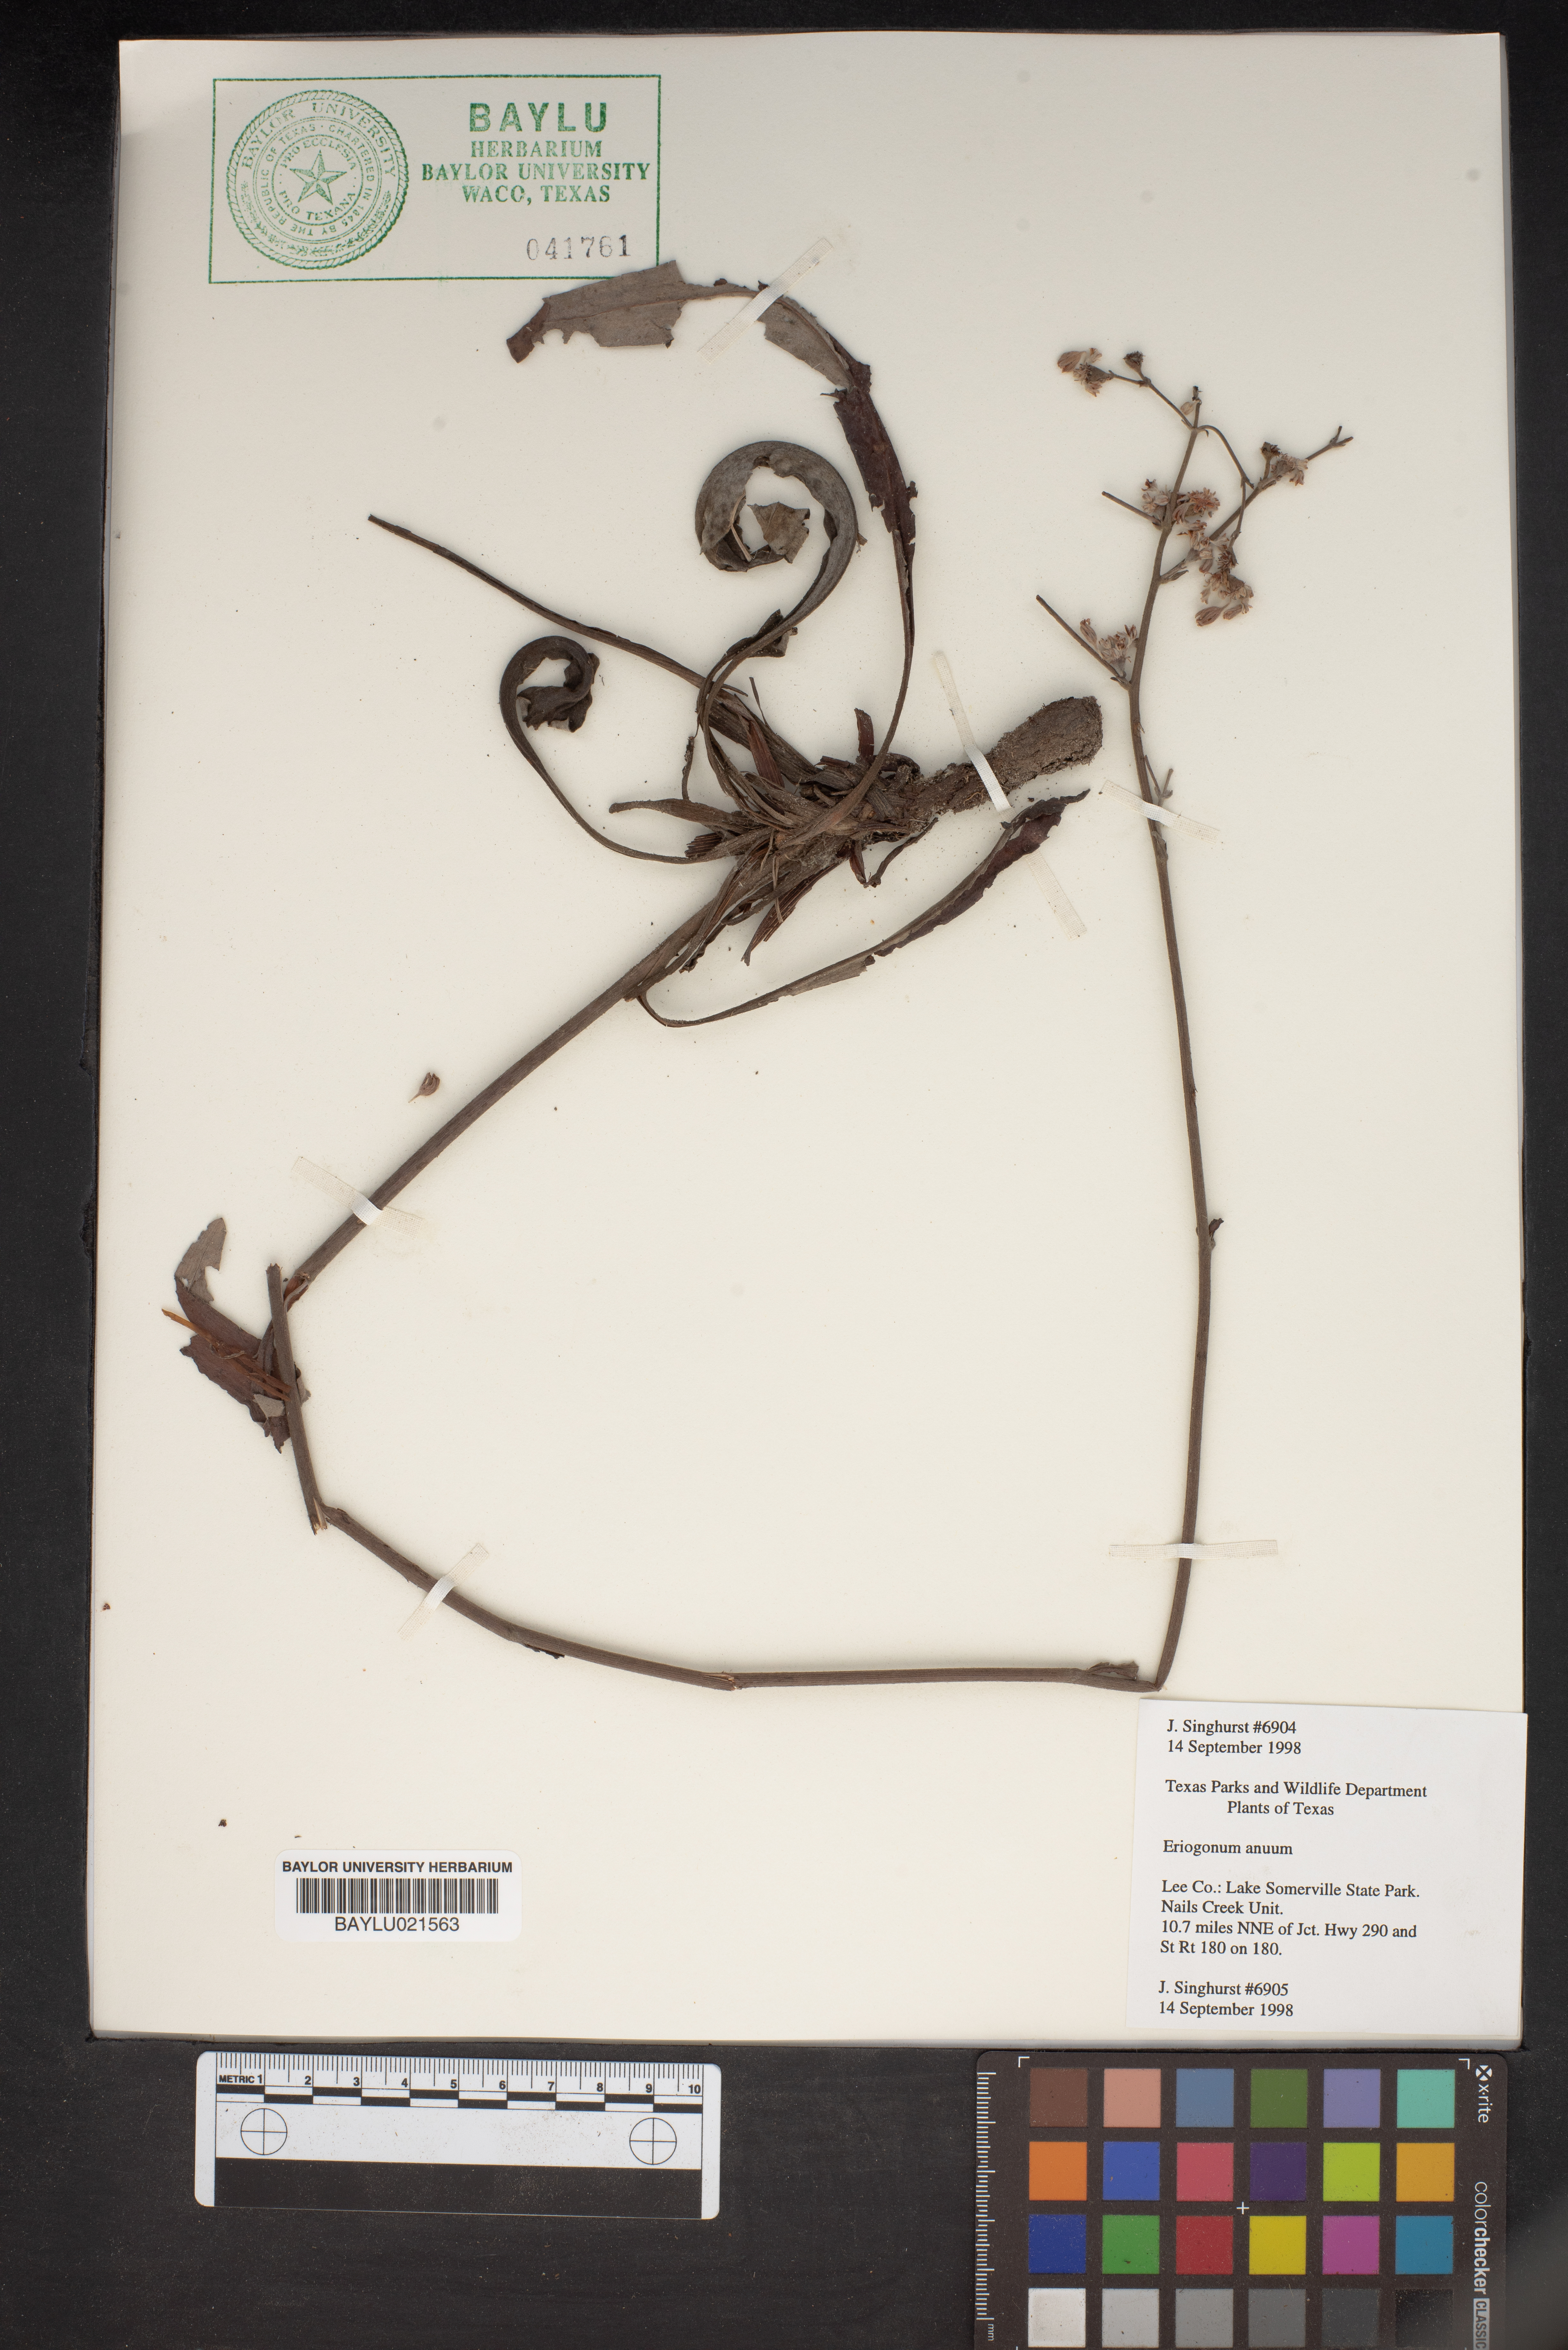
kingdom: Plantae
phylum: Tracheophyta
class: Magnoliopsida
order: Caryophyllales
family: Polygonaceae
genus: Eriogonum
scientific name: Eriogonum annuum
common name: Annual wild buckwheat
